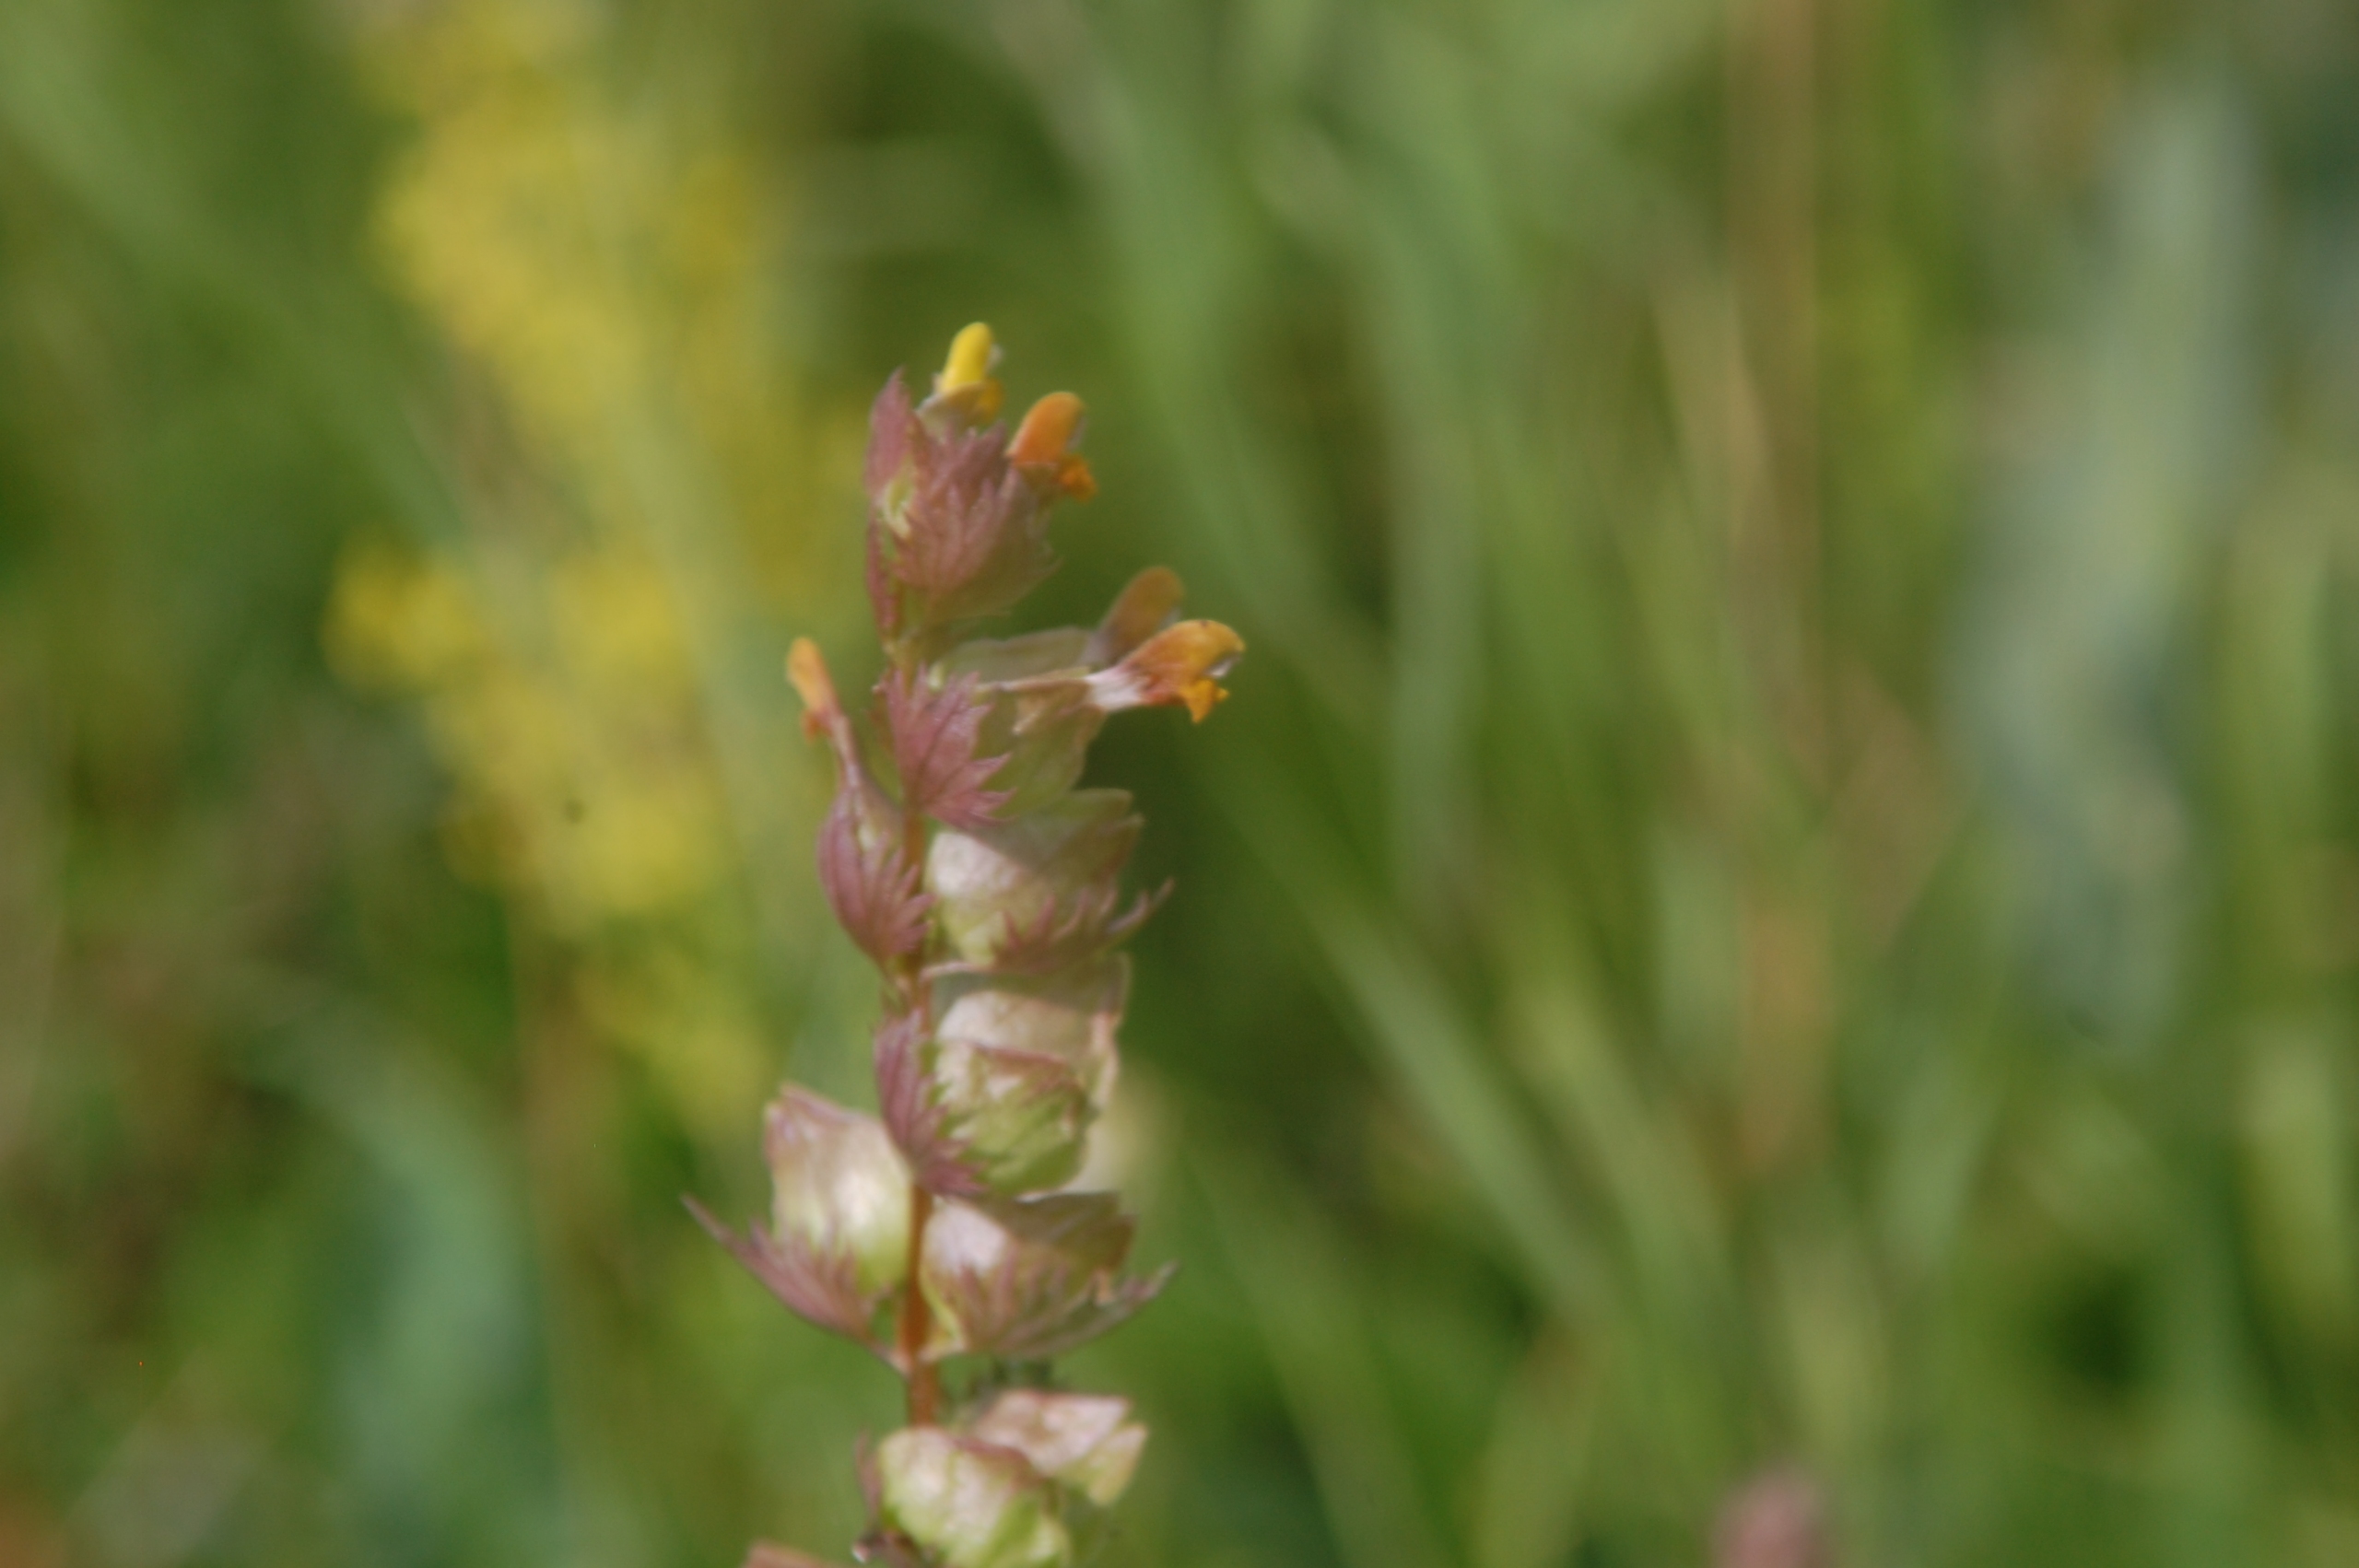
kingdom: Plantae
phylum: Tracheophyta
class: Magnoliopsida
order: Lamiales
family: Orobanchaceae
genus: Rhinanthus
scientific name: Rhinanthus minor
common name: Liden skjaller
